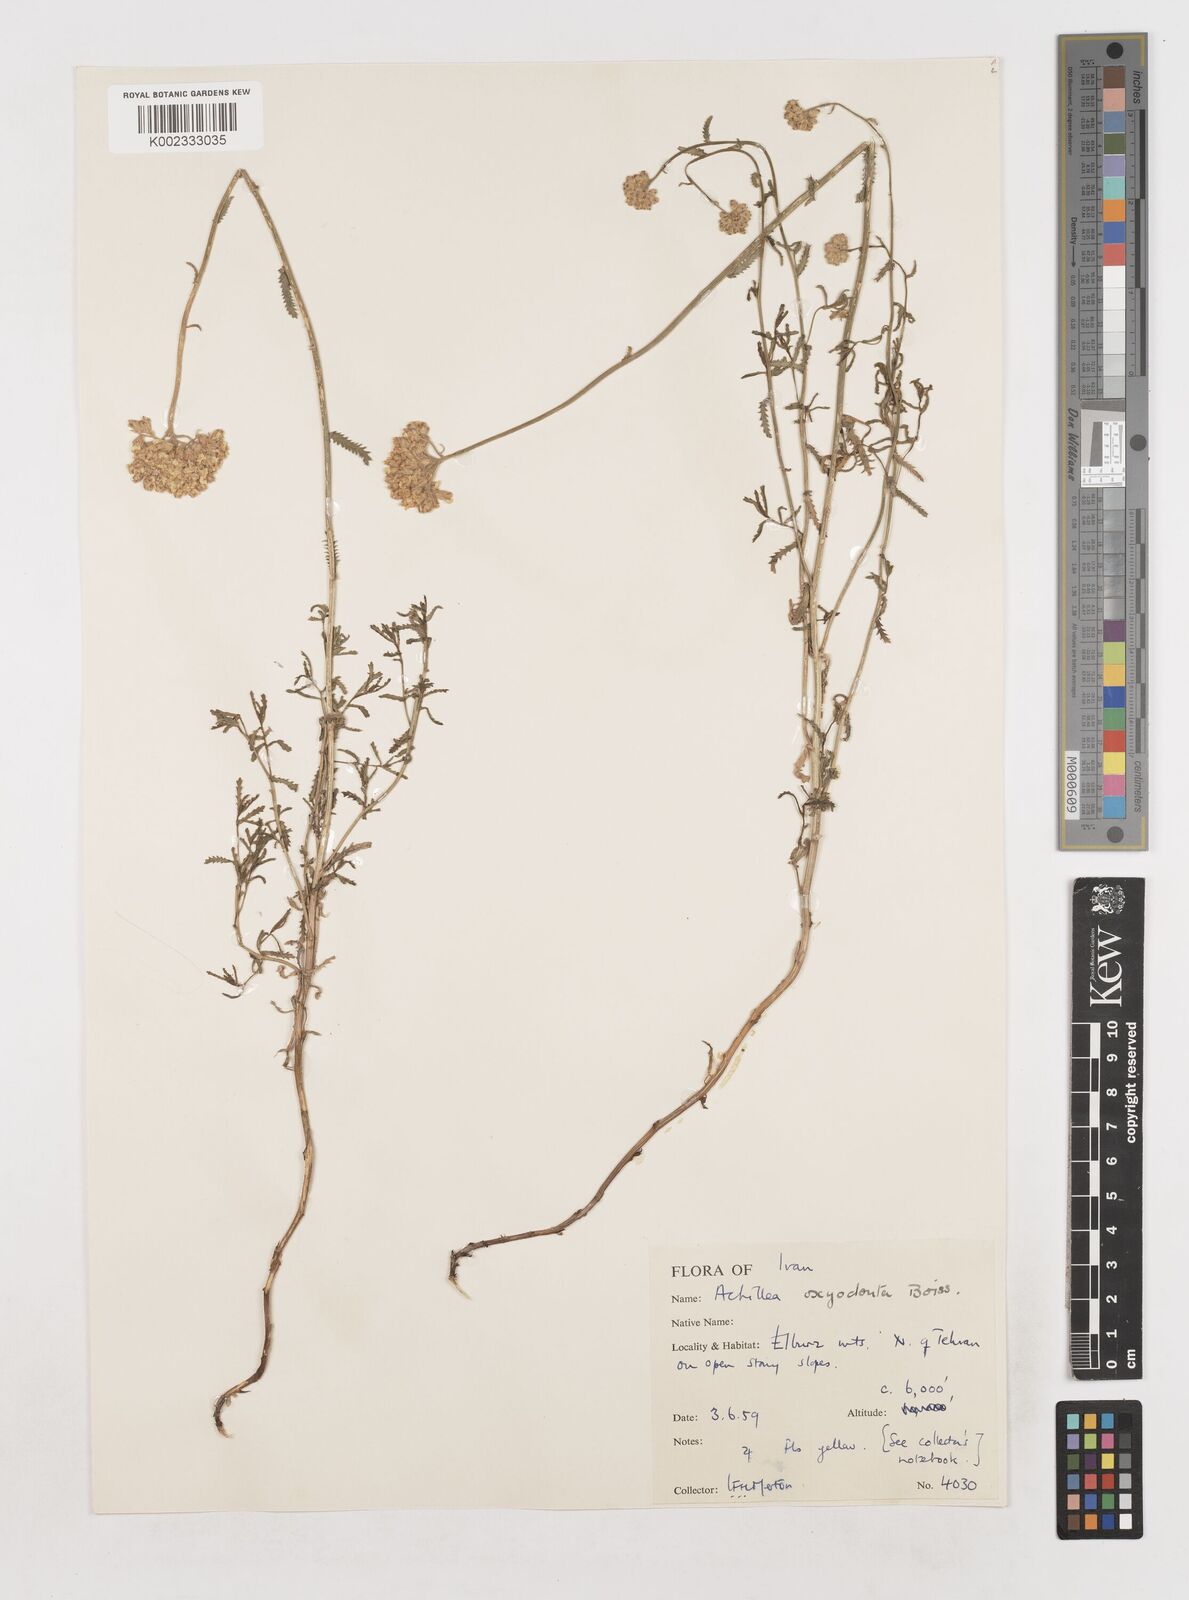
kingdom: Plantae
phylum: Tracheophyta
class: Magnoliopsida
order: Asterales
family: Asteraceae
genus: Achillea
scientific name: Achillea oxyodonta
